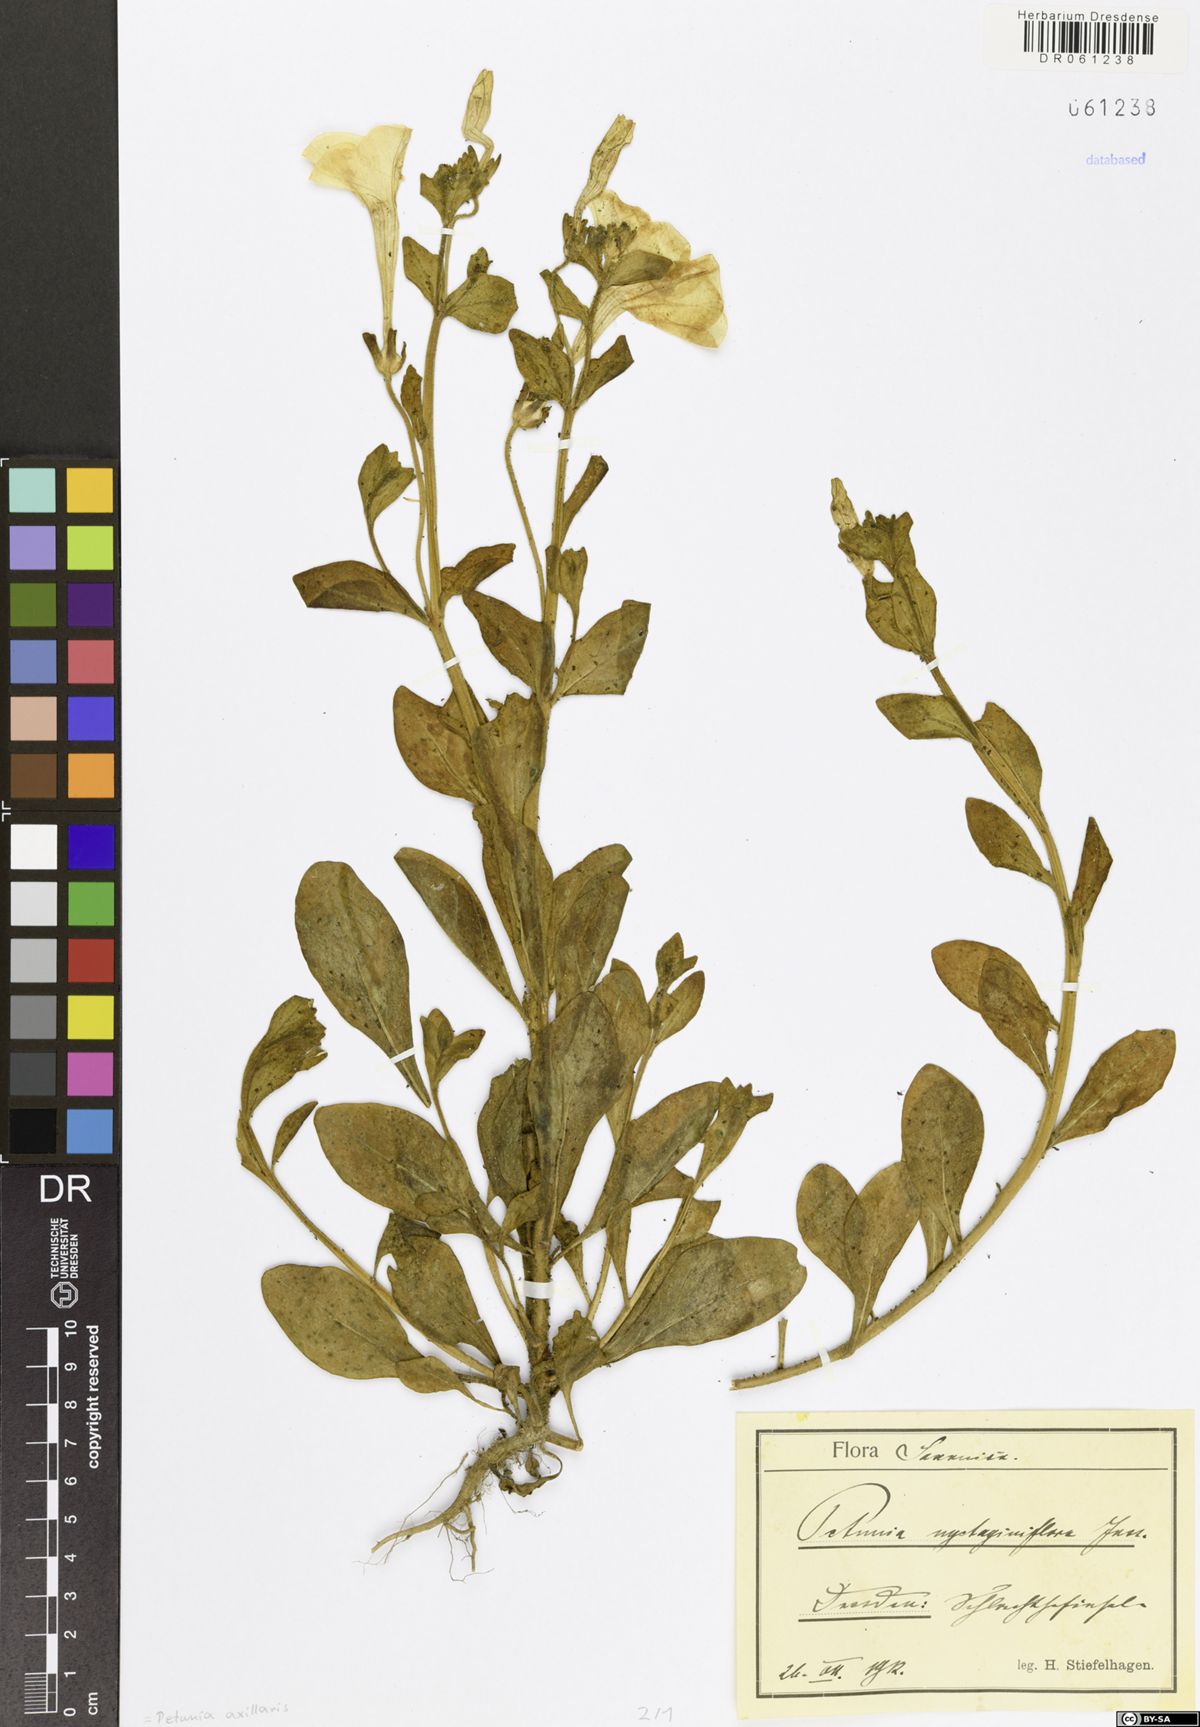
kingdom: Plantae
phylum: Tracheophyta
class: Magnoliopsida
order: Solanales
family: Solanaceae
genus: Petunia
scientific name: Petunia axillaris
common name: Large white petunia
